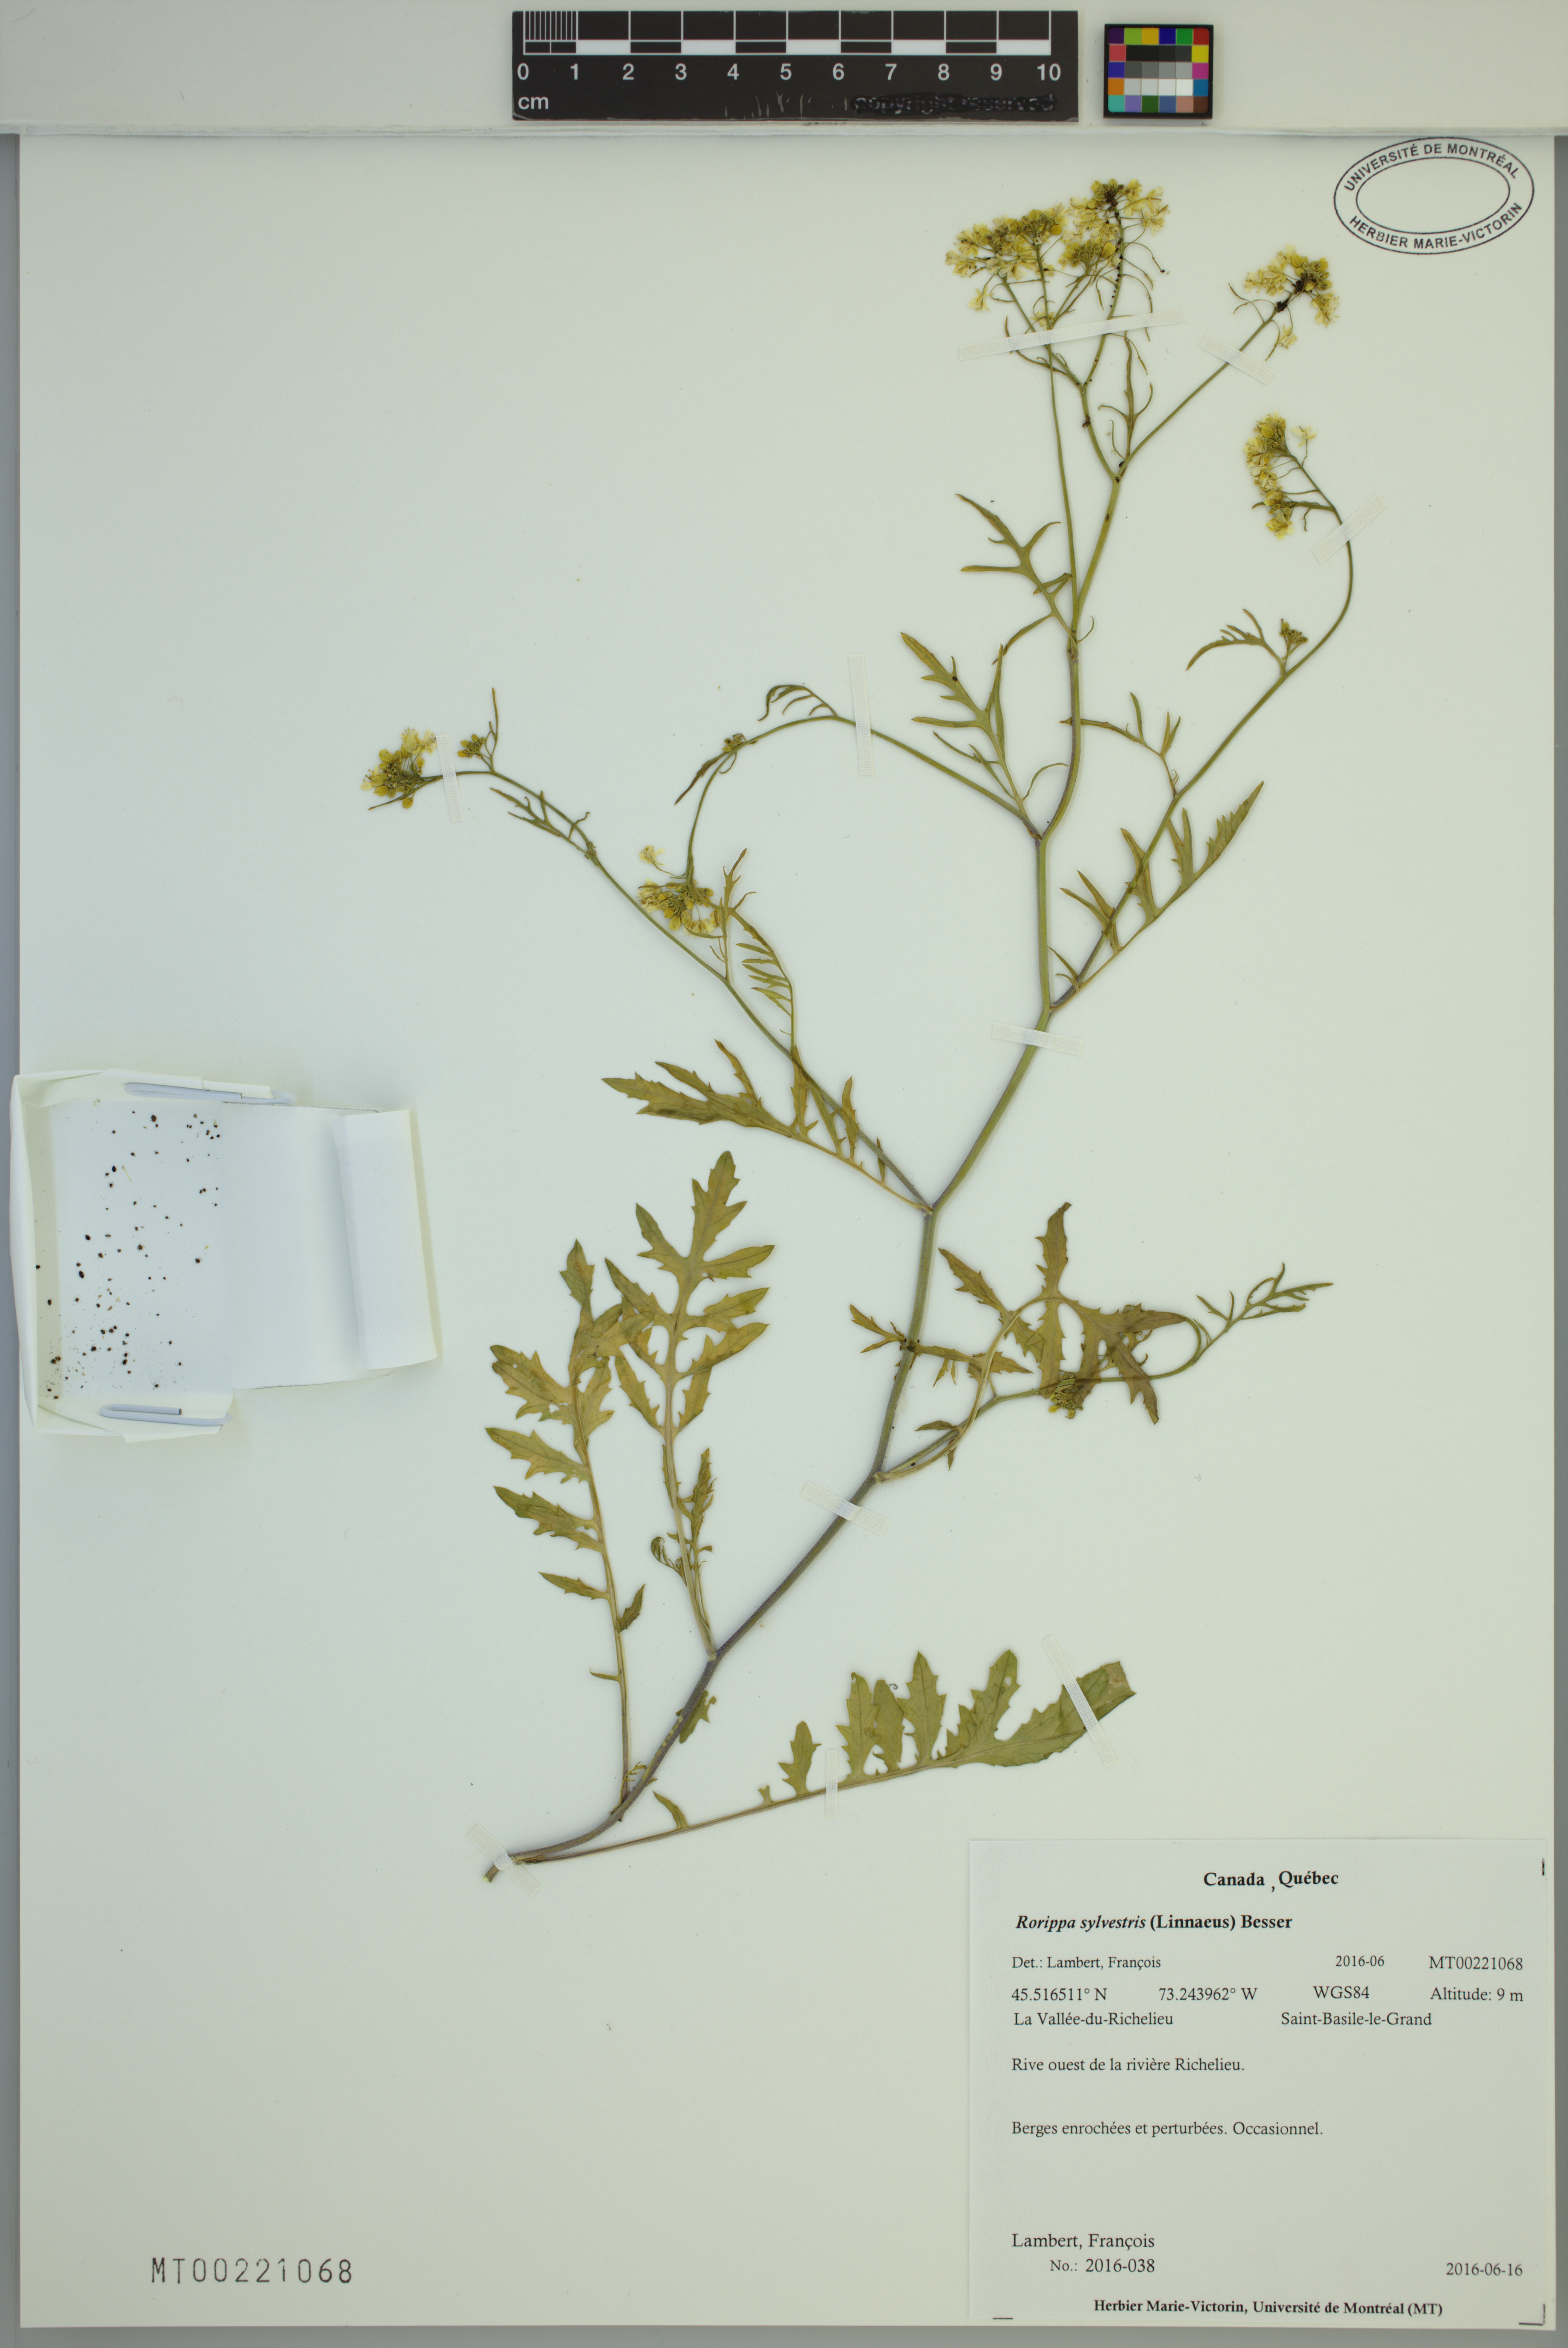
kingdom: Plantae
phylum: Tracheophyta
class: Magnoliopsida
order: Brassicales
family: Brassicaceae
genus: Rorippa
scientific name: Rorippa sylvestris
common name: Creeping yellowcress
